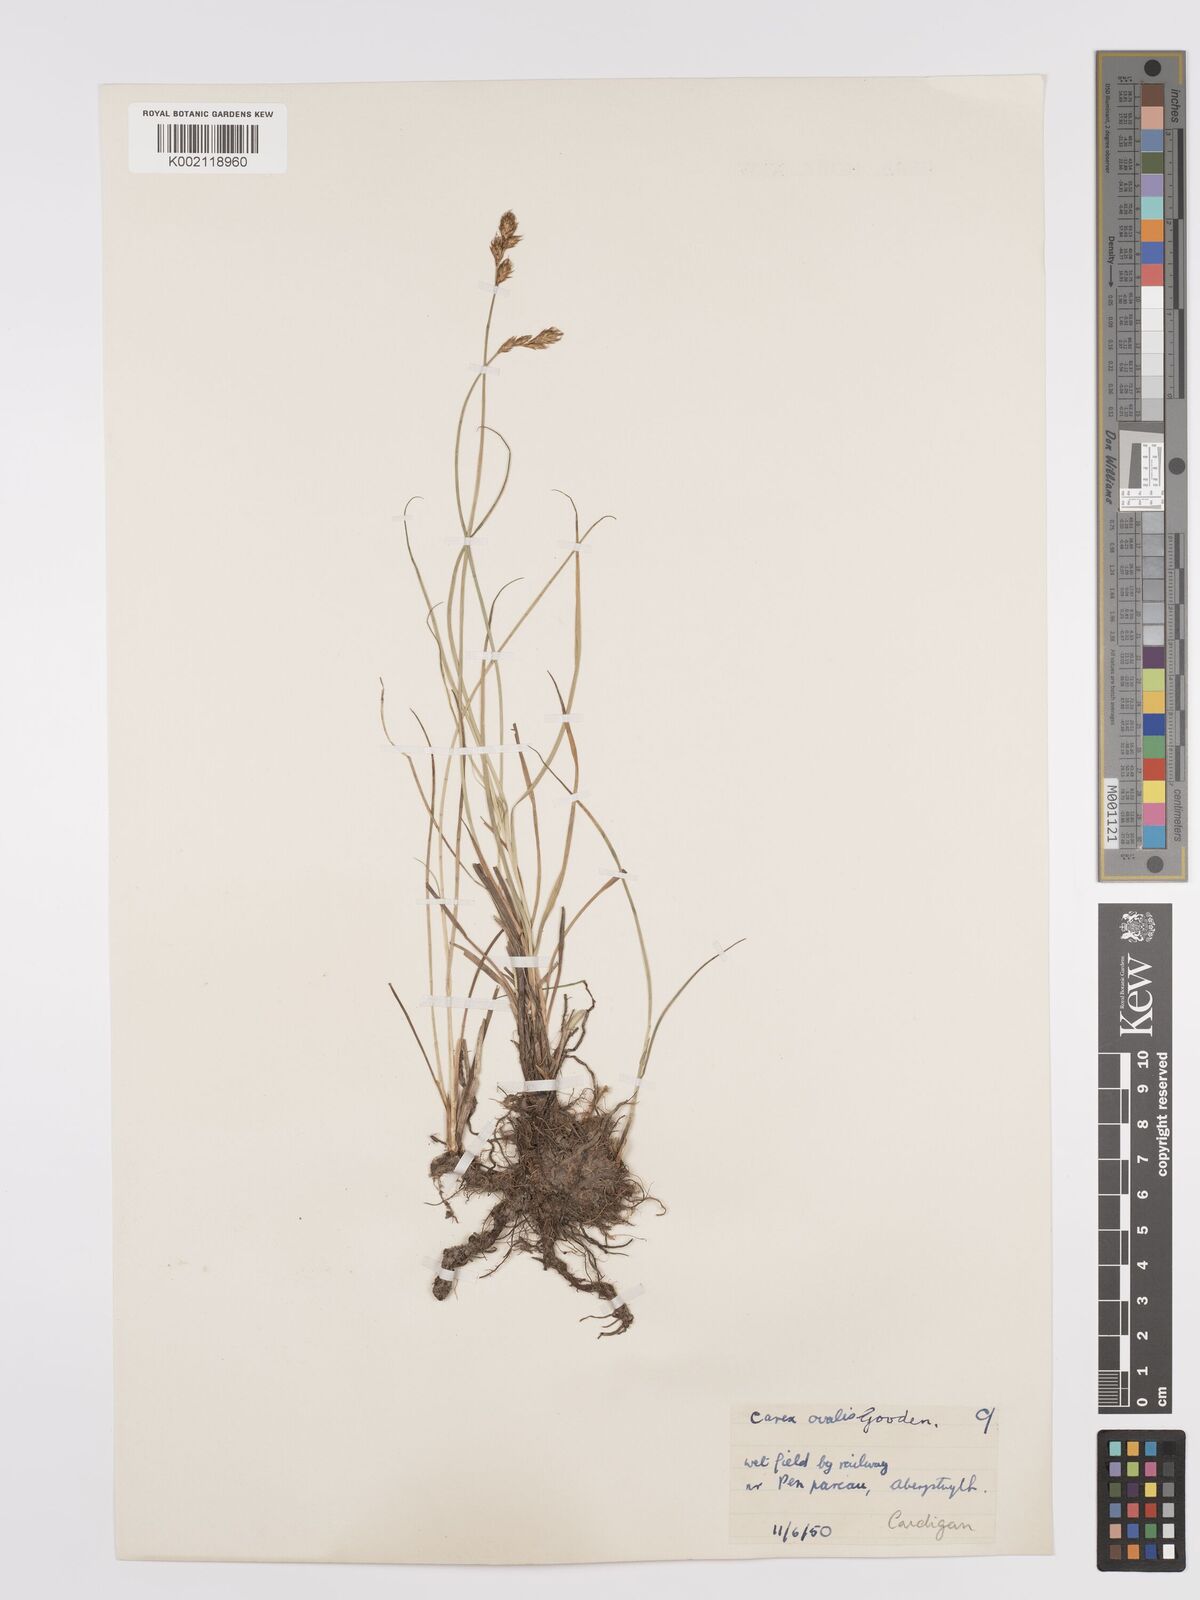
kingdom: Plantae
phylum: Tracheophyta
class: Liliopsida
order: Poales
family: Cyperaceae
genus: Carex
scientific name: Carex leporina
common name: Oval sedge
